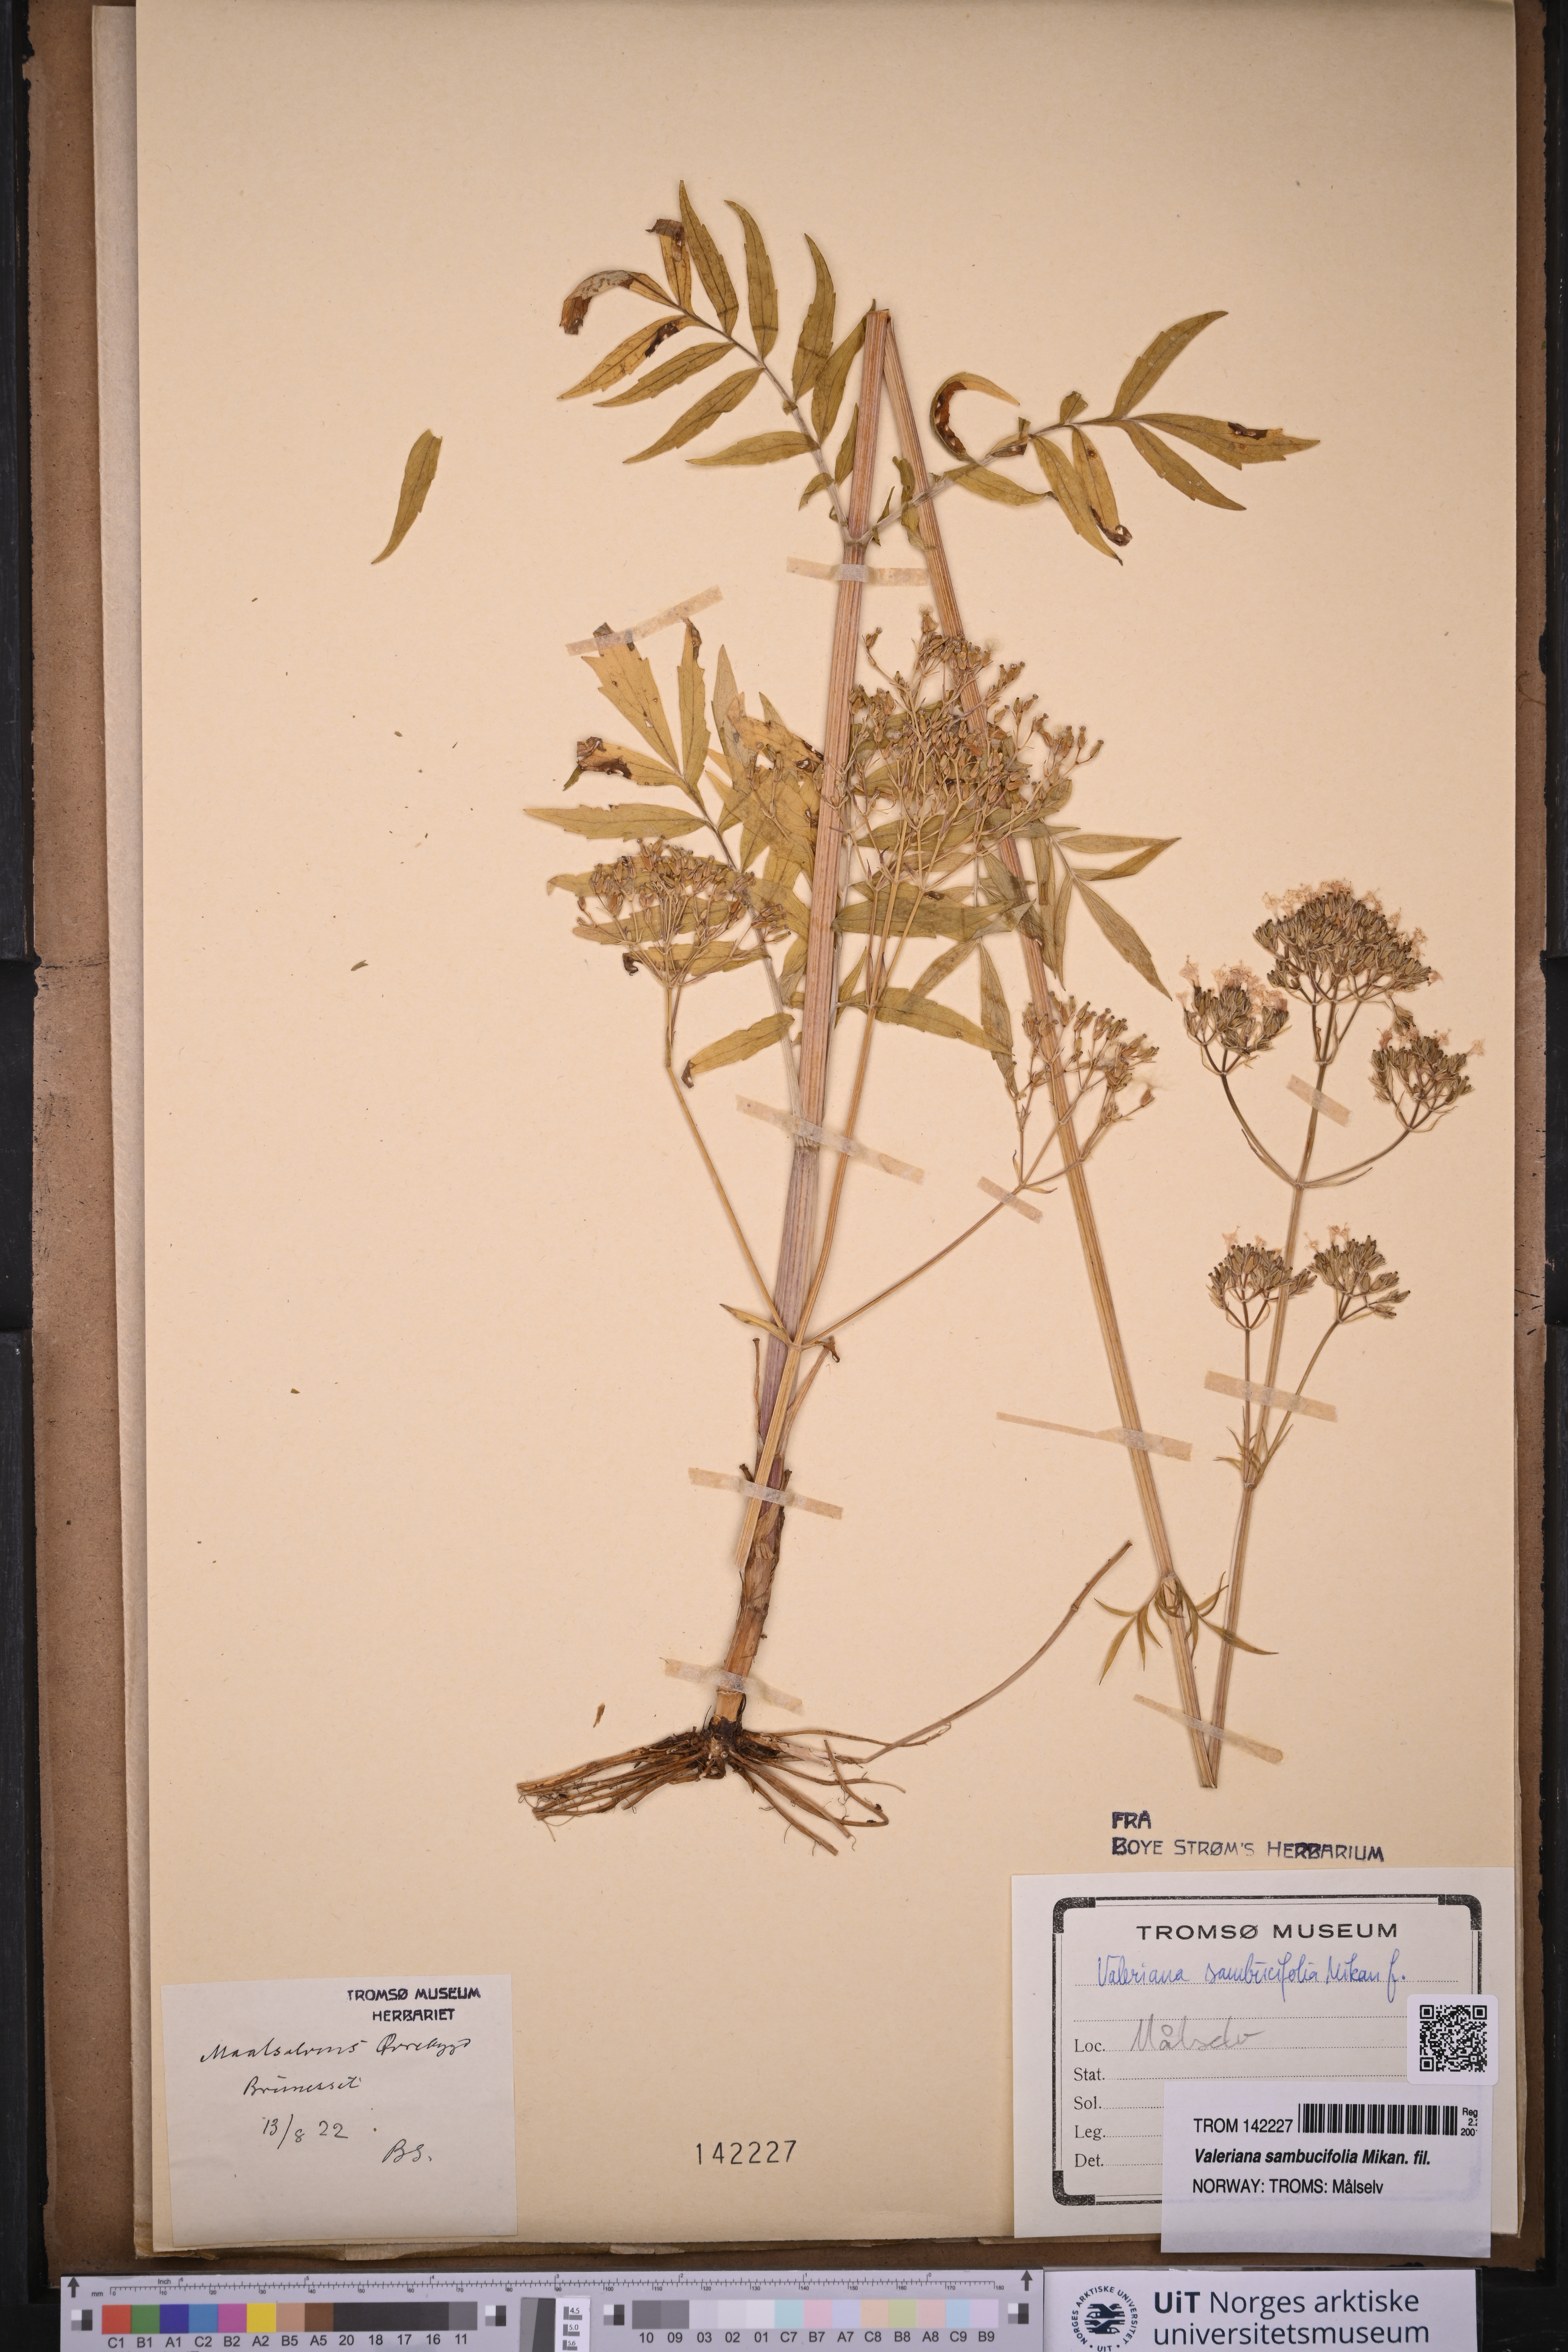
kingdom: Plantae
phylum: Tracheophyta
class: Magnoliopsida
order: Dipsacales
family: Caprifoliaceae
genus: Valeriana
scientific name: Valeriana excelsa
